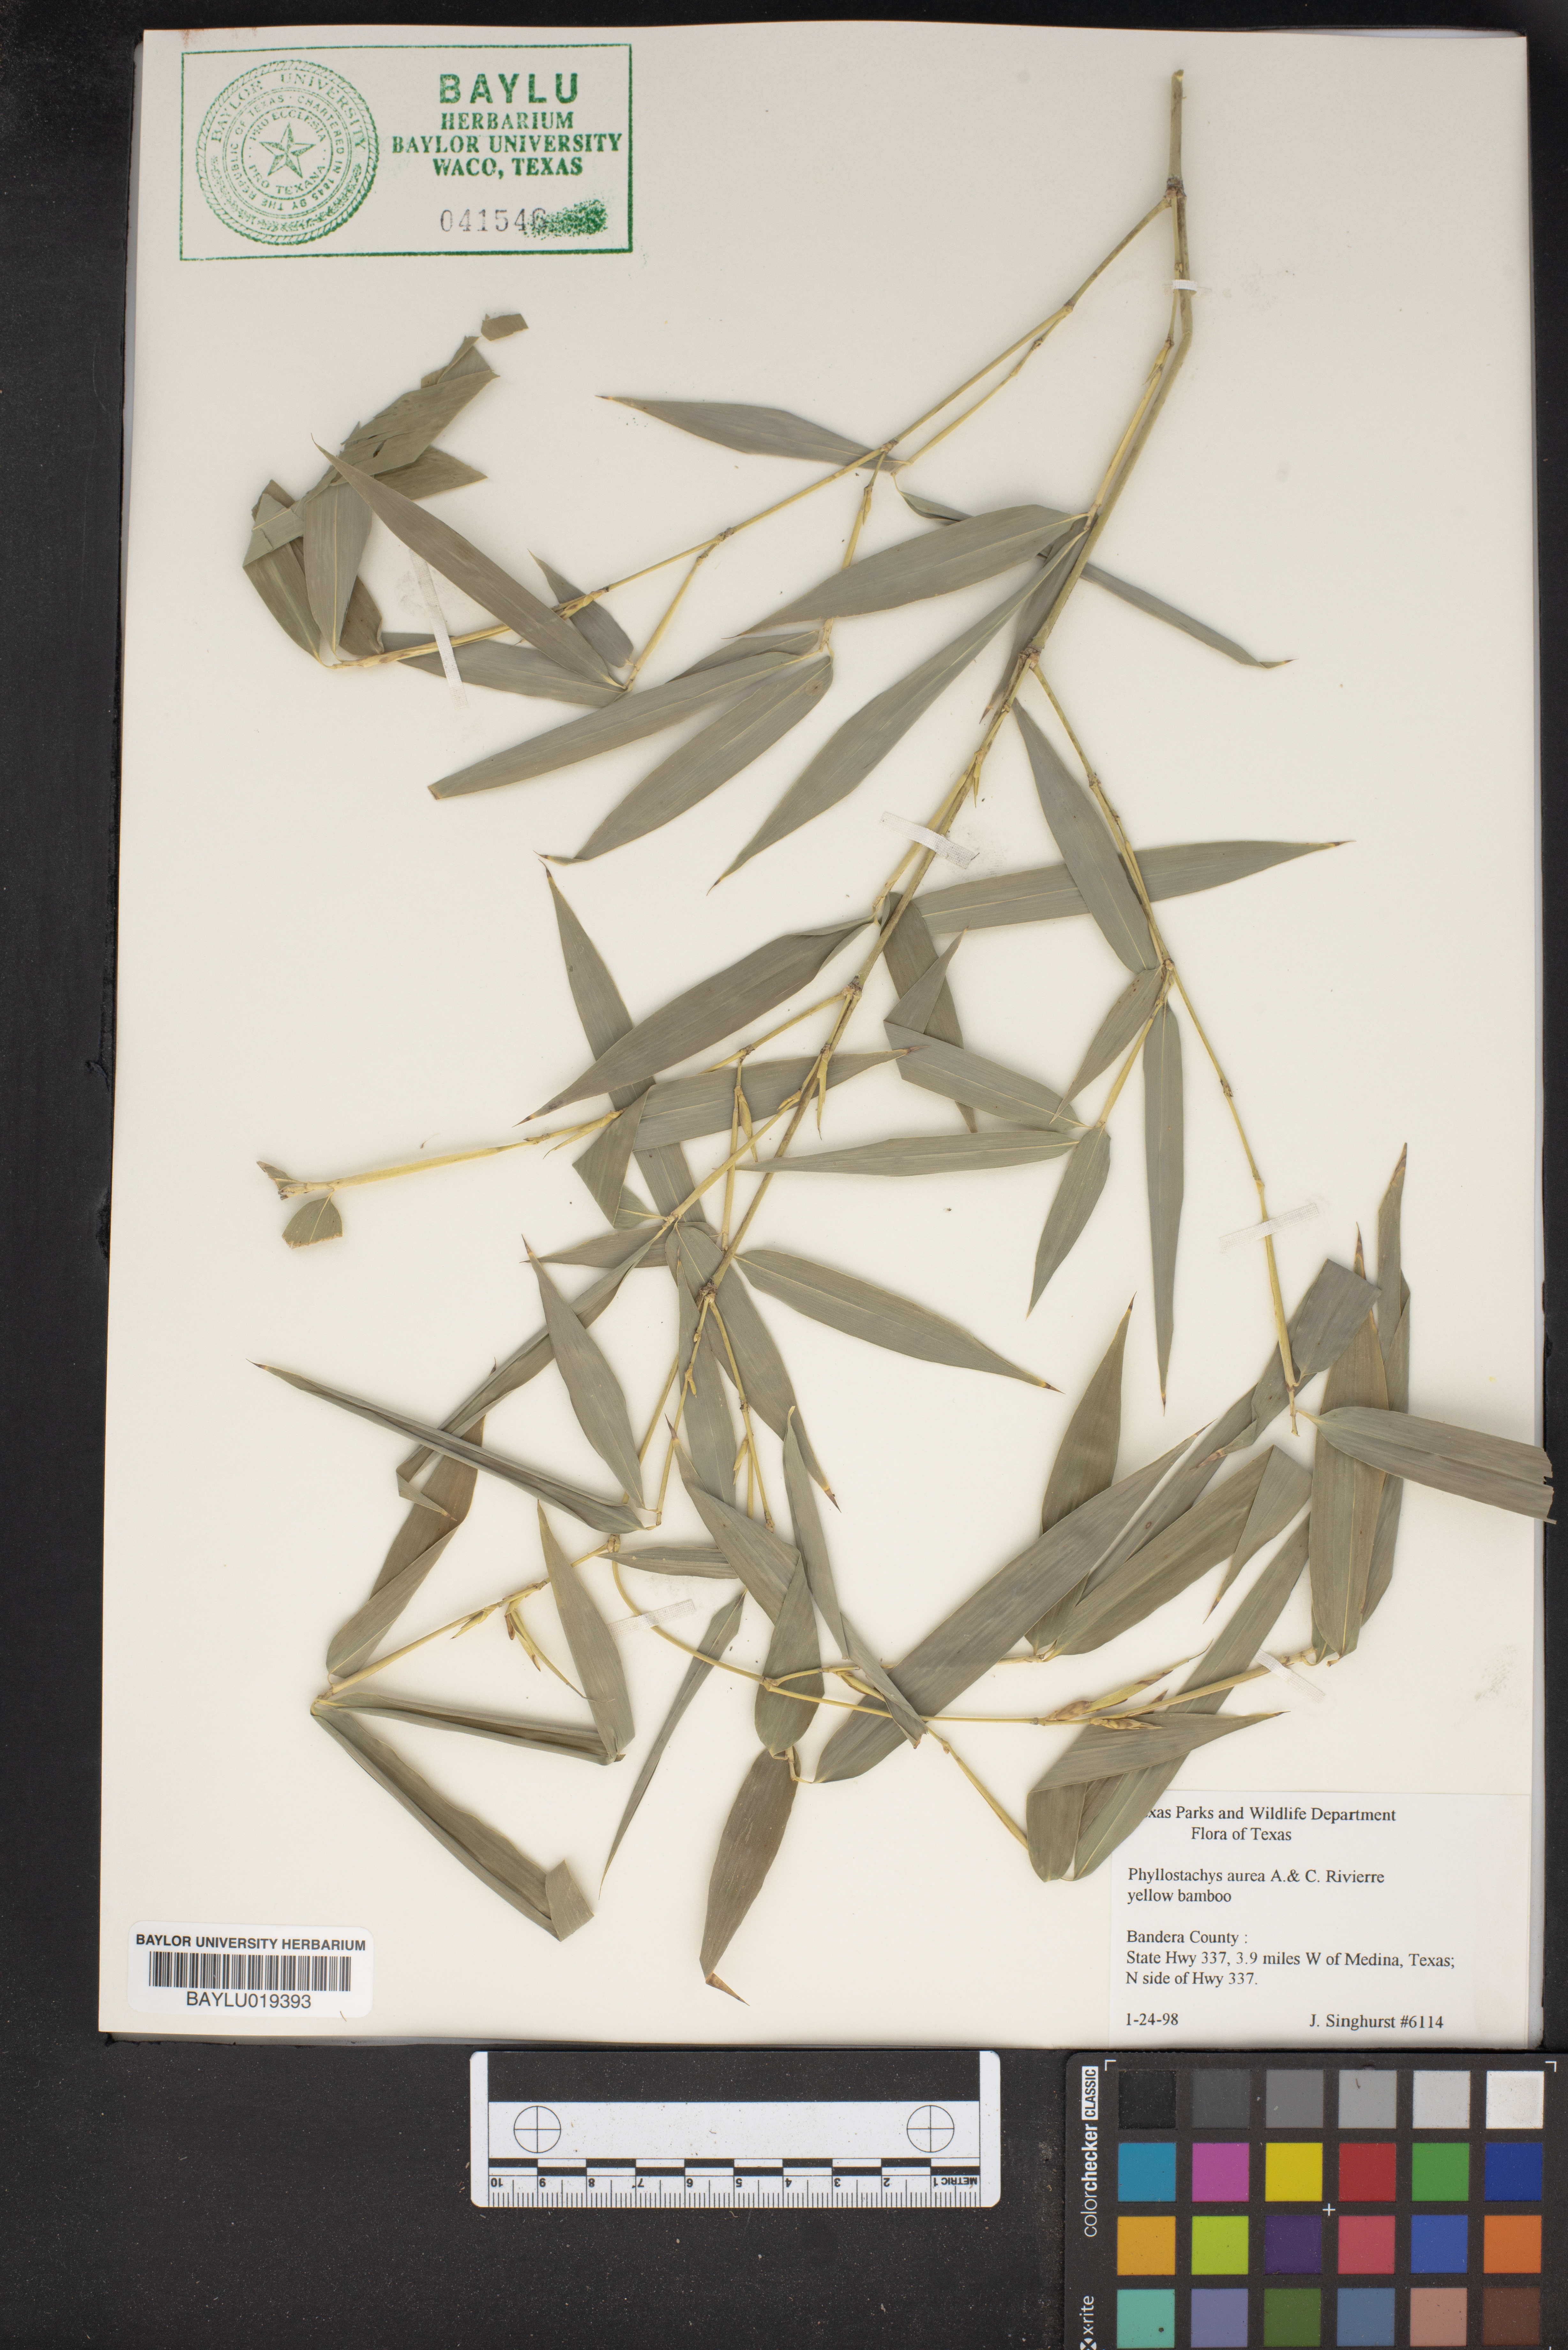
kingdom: Plantae
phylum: Tracheophyta
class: Liliopsida
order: Poales
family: Poaceae
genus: Phyllostachys
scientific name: Phyllostachys aurea
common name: Golden bamboo
